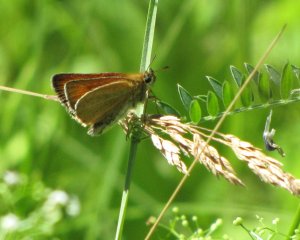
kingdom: Animalia
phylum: Arthropoda
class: Insecta
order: Lepidoptera
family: Hesperiidae
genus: Thymelicus
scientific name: Thymelicus lineola
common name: European Skipper
